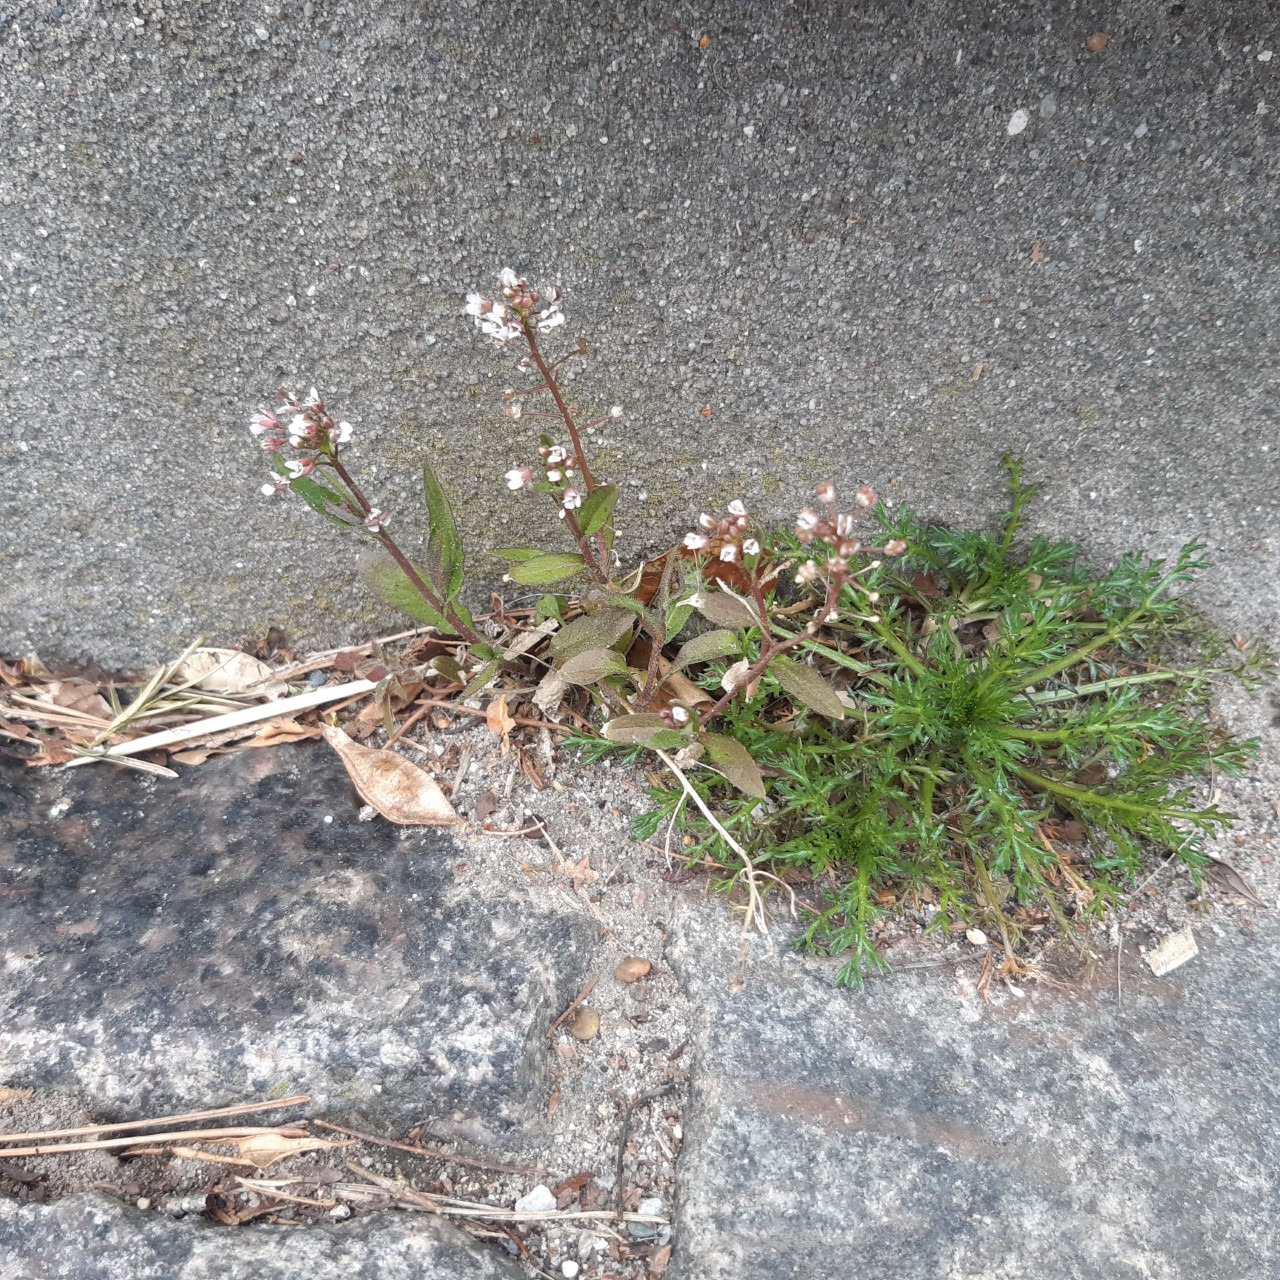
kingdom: Plantae
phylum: Tracheophyta
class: Magnoliopsida
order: Brassicales
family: Brassicaceae
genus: Capsella
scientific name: Capsella
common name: Hyrdetaskeslægten
